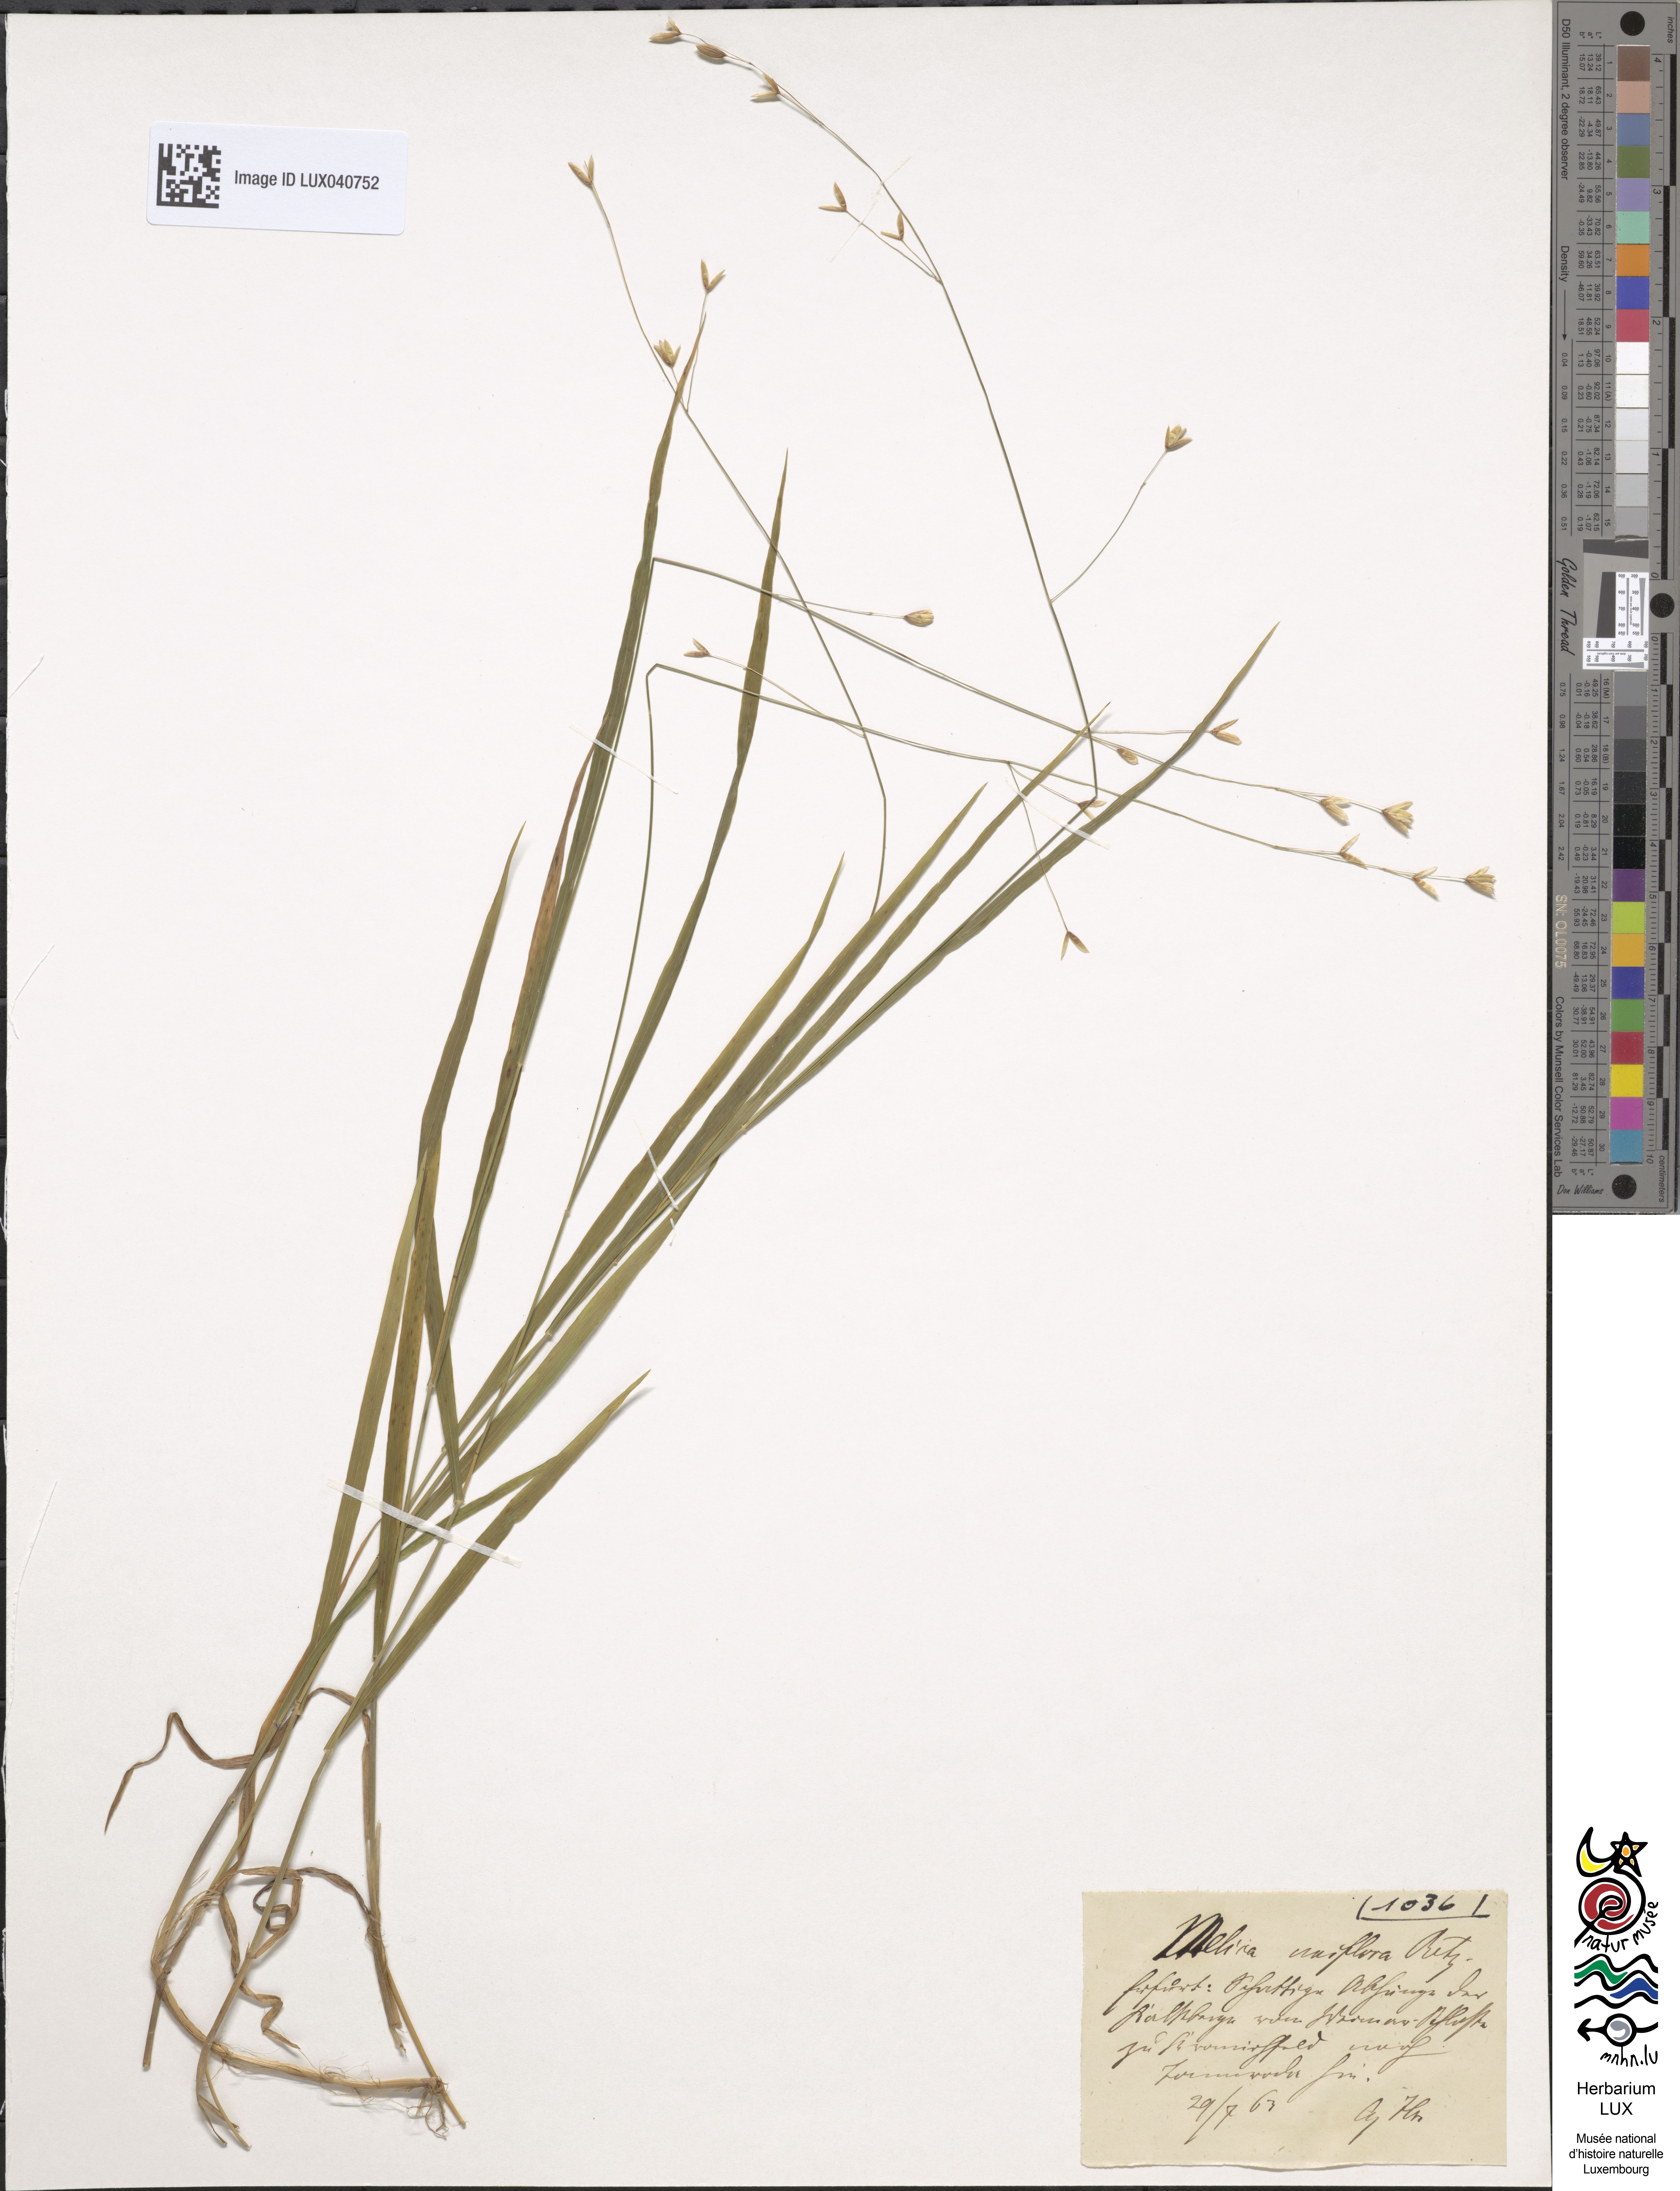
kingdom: Plantae
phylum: Tracheophyta
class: Liliopsida
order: Poales
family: Poaceae
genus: Melica
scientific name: Melica uniflora
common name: Wood melick
